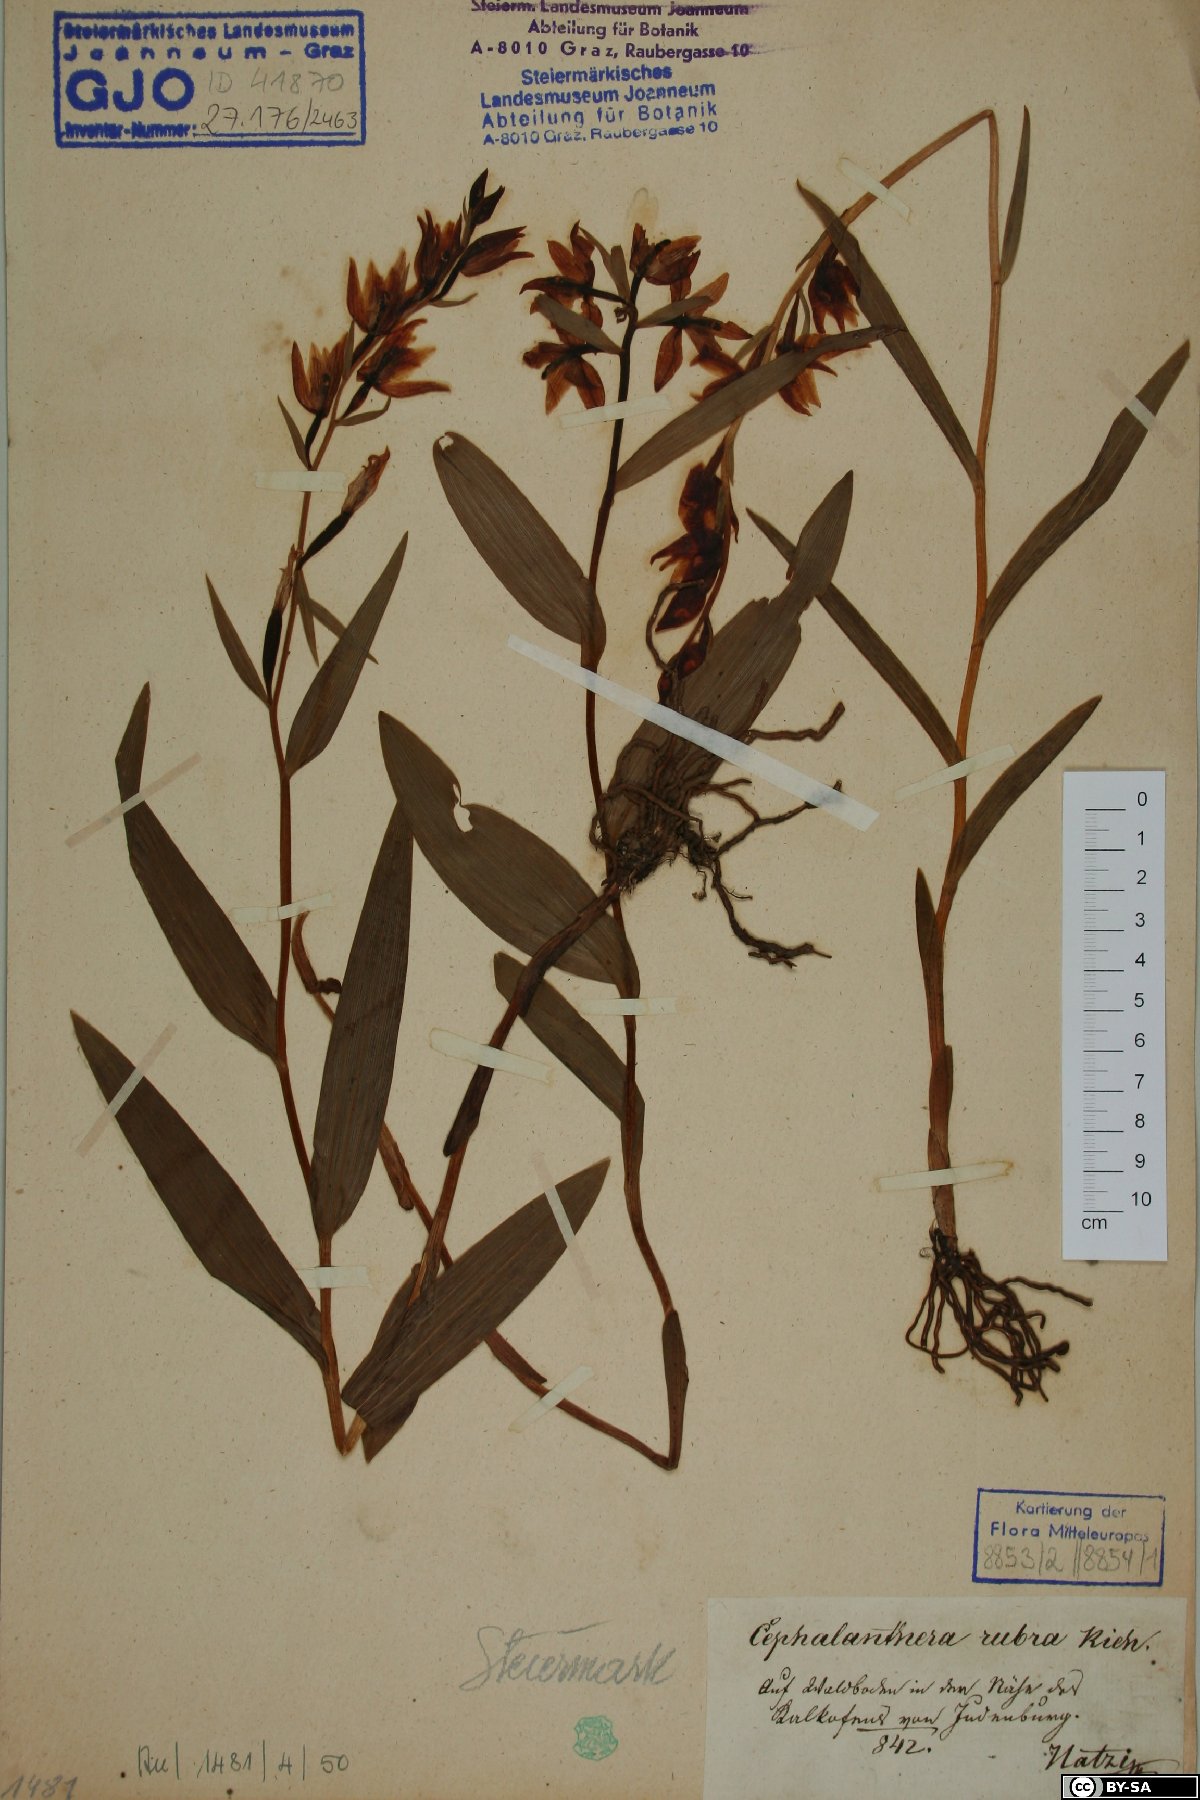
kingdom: Plantae
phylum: Tracheophyta
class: Liliopsida
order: Asparagales
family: Orchidaceae
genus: Cephalanthera
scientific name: Cephalanthera rubra
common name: Red helleborine
